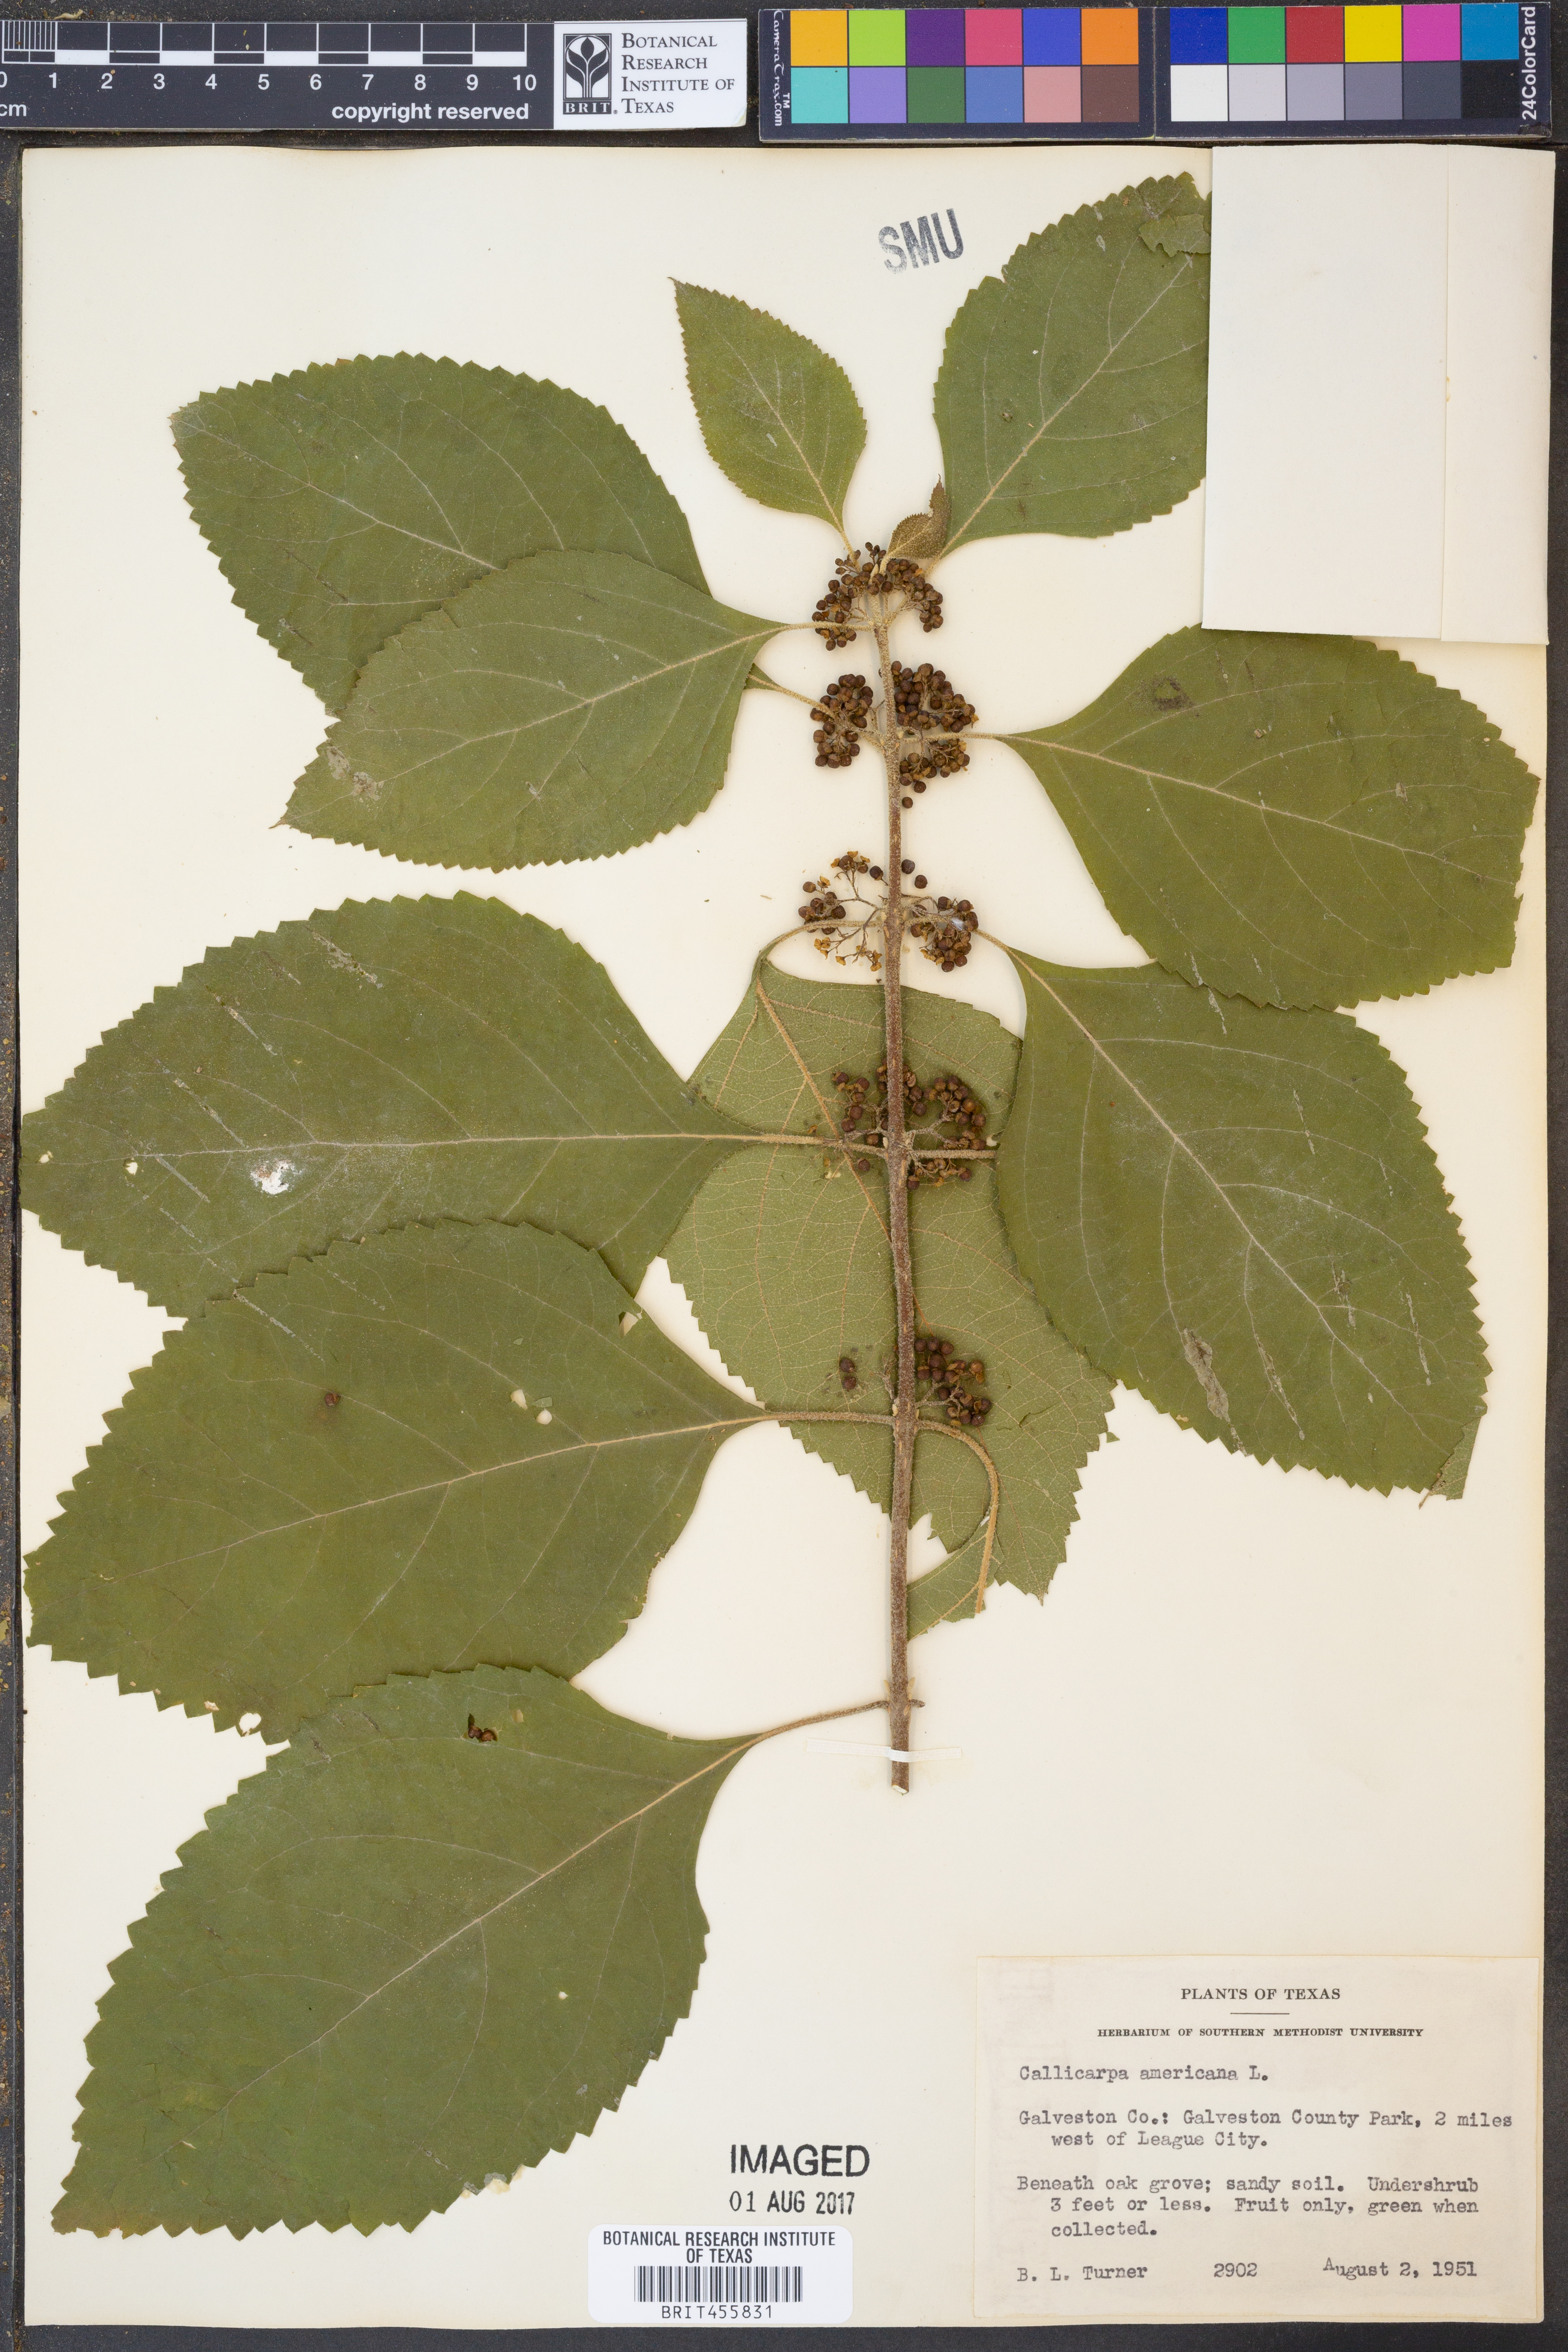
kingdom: Plantae
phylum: Tracheophyta
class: Magnoliopsida
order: Lamiales
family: Lamiaceae
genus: Callicarpa
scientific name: Callicarpa americana
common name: American beautyberry
